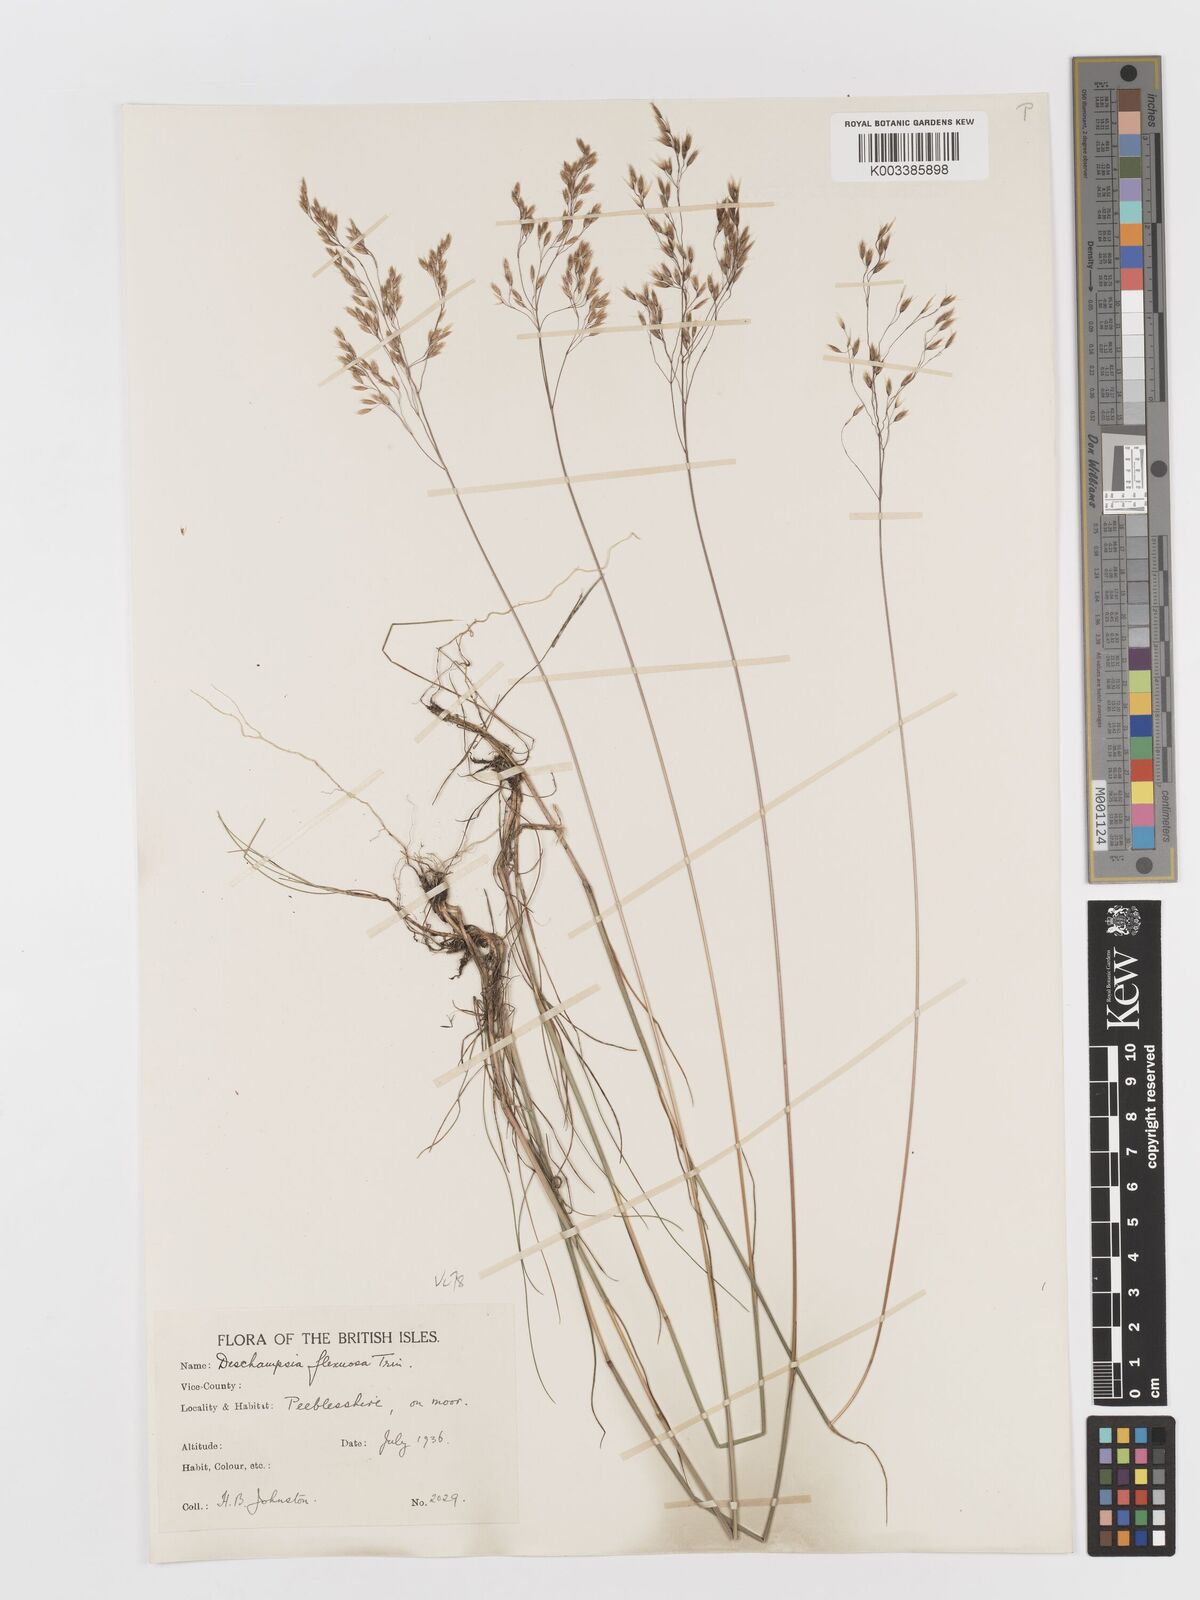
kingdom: Plantae
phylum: Tracheophyta
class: Liliopsida
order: Poales
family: Poaceae
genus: Avenella
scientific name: Avenella flexuosa
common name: Wavy hairgrass
